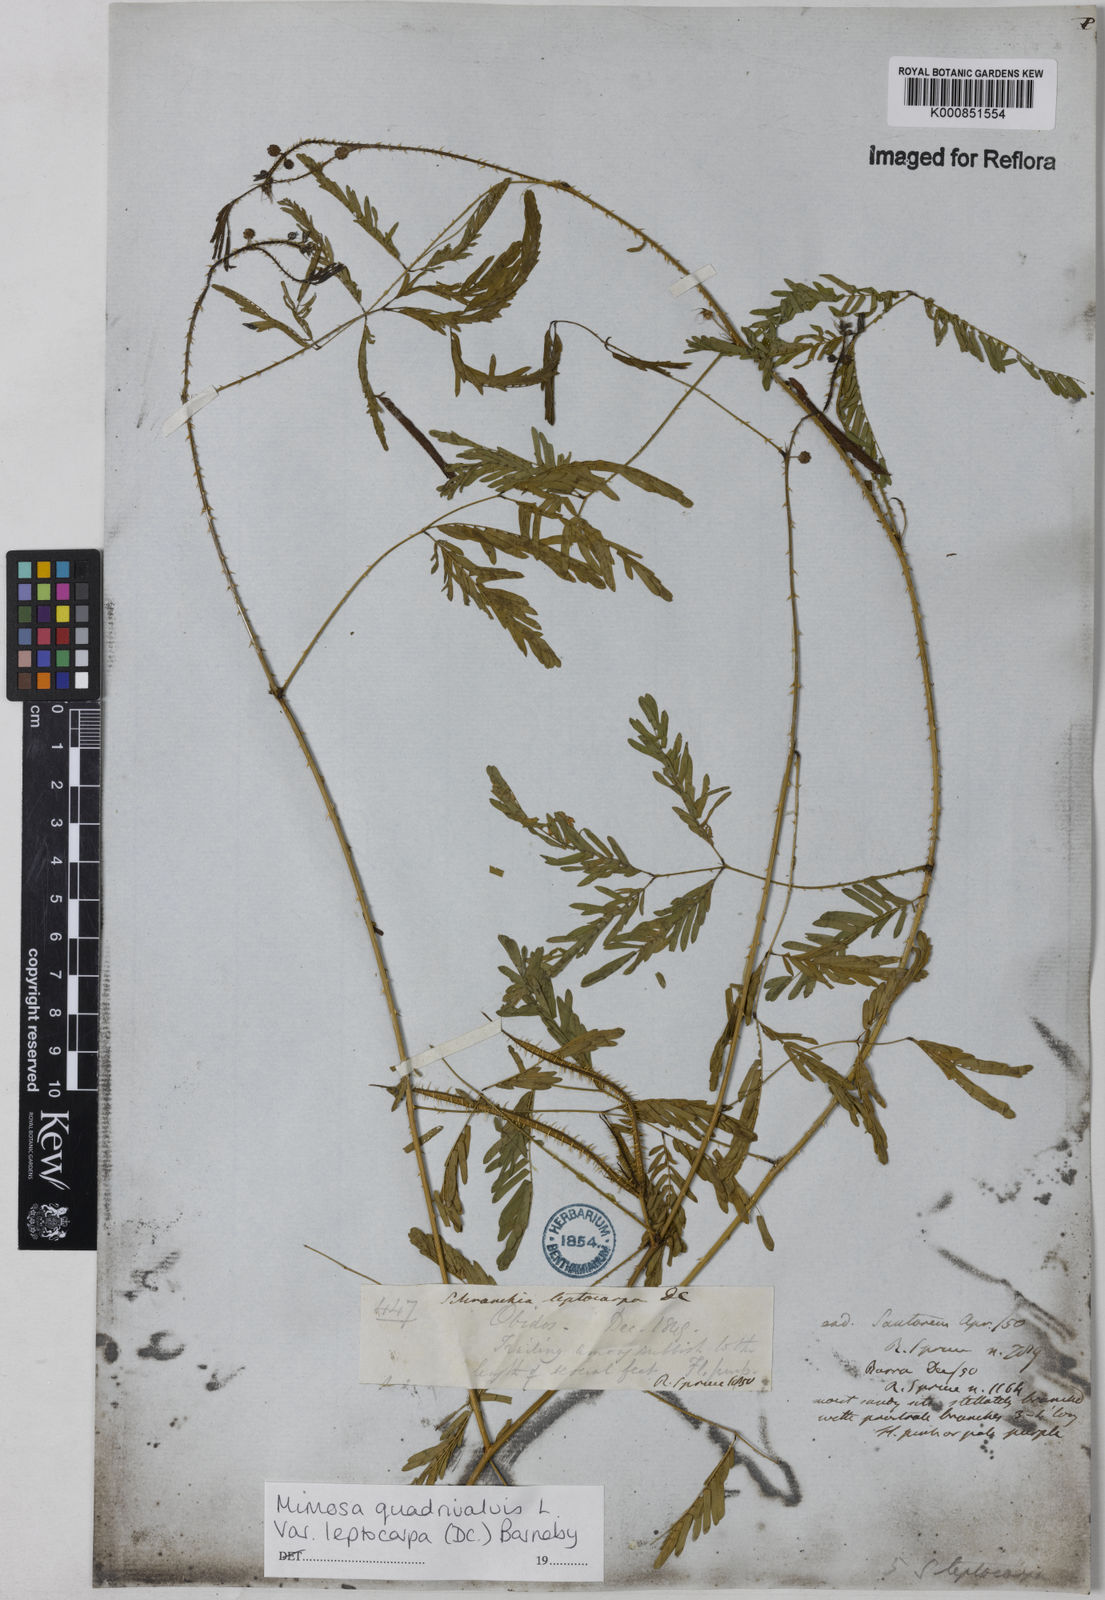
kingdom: Plantae
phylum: Tracheophyta
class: Magnoliopsida
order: Fabales
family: Fabaceae
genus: Mimosa
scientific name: Mimosa candollei
